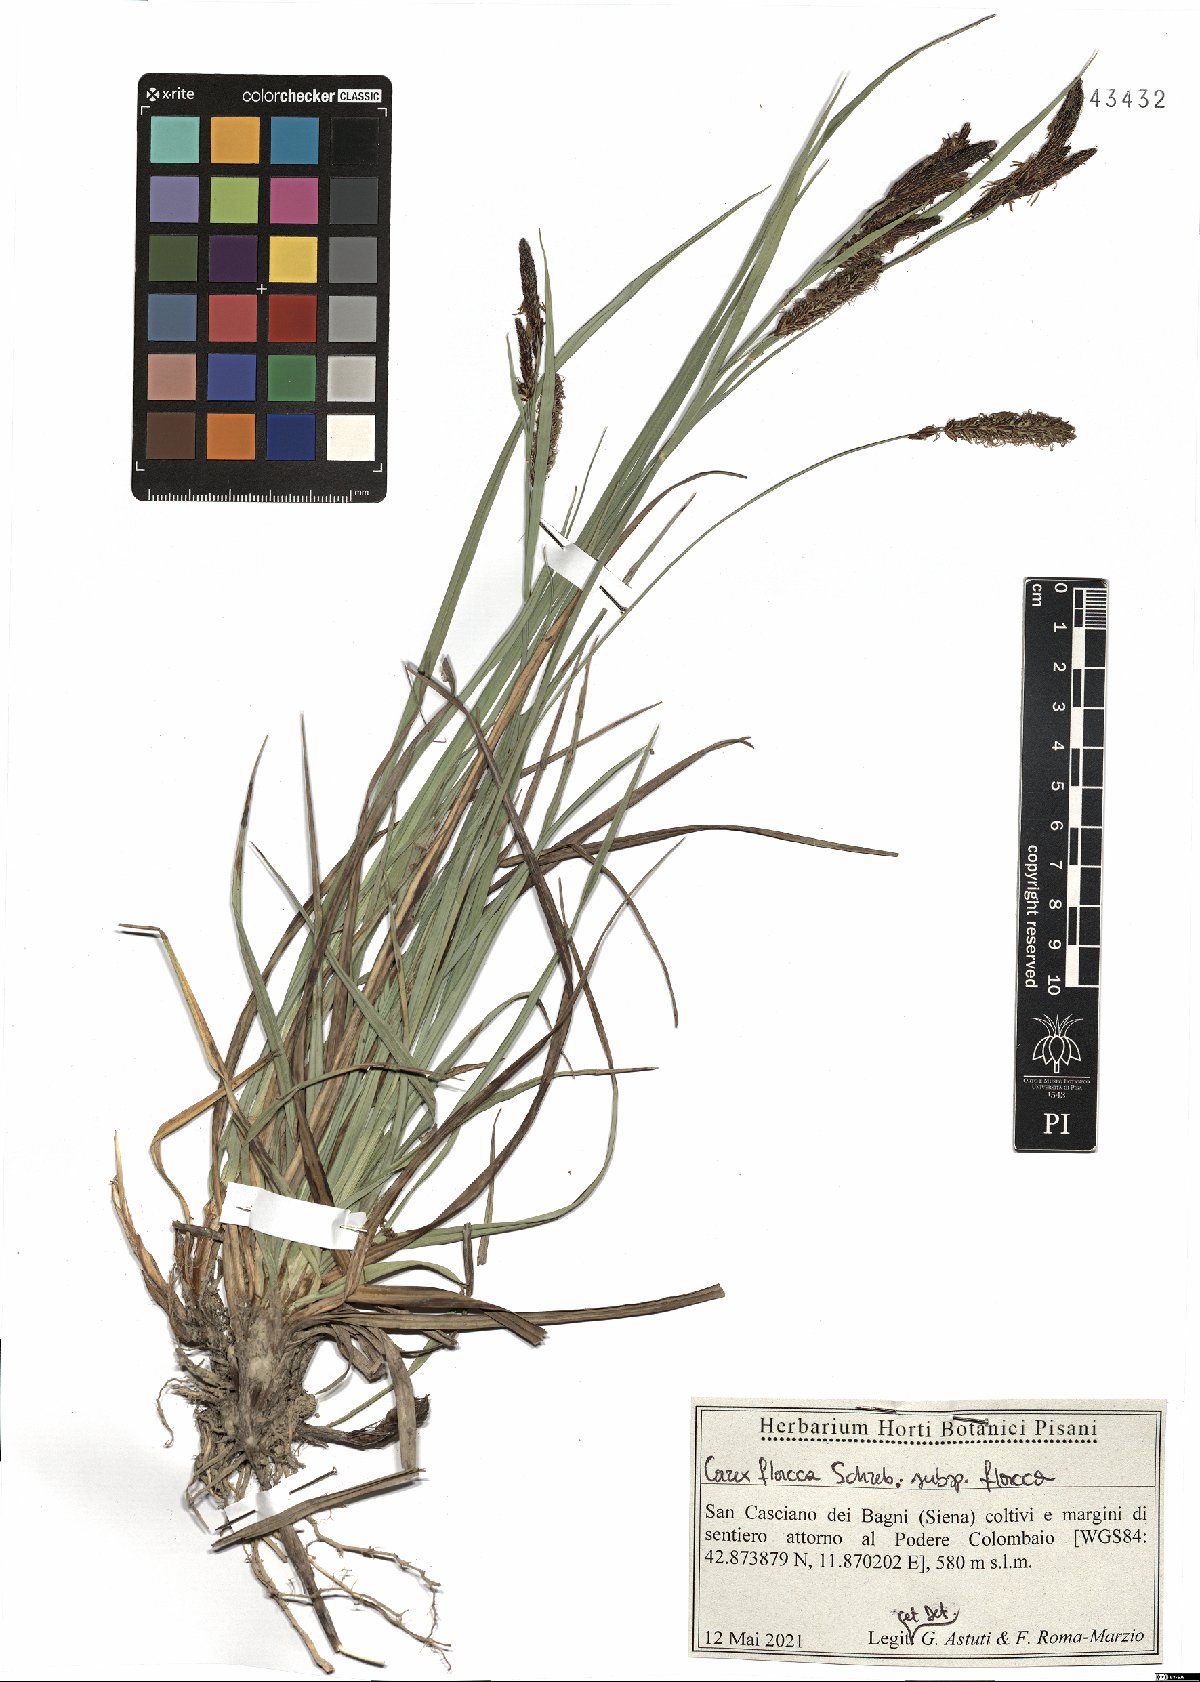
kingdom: Plantae
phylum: Tracheophyta
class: Liliopsida
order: Poales
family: Cyperaceae
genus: Carex
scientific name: Carex flacca
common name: Glaucous sedge
